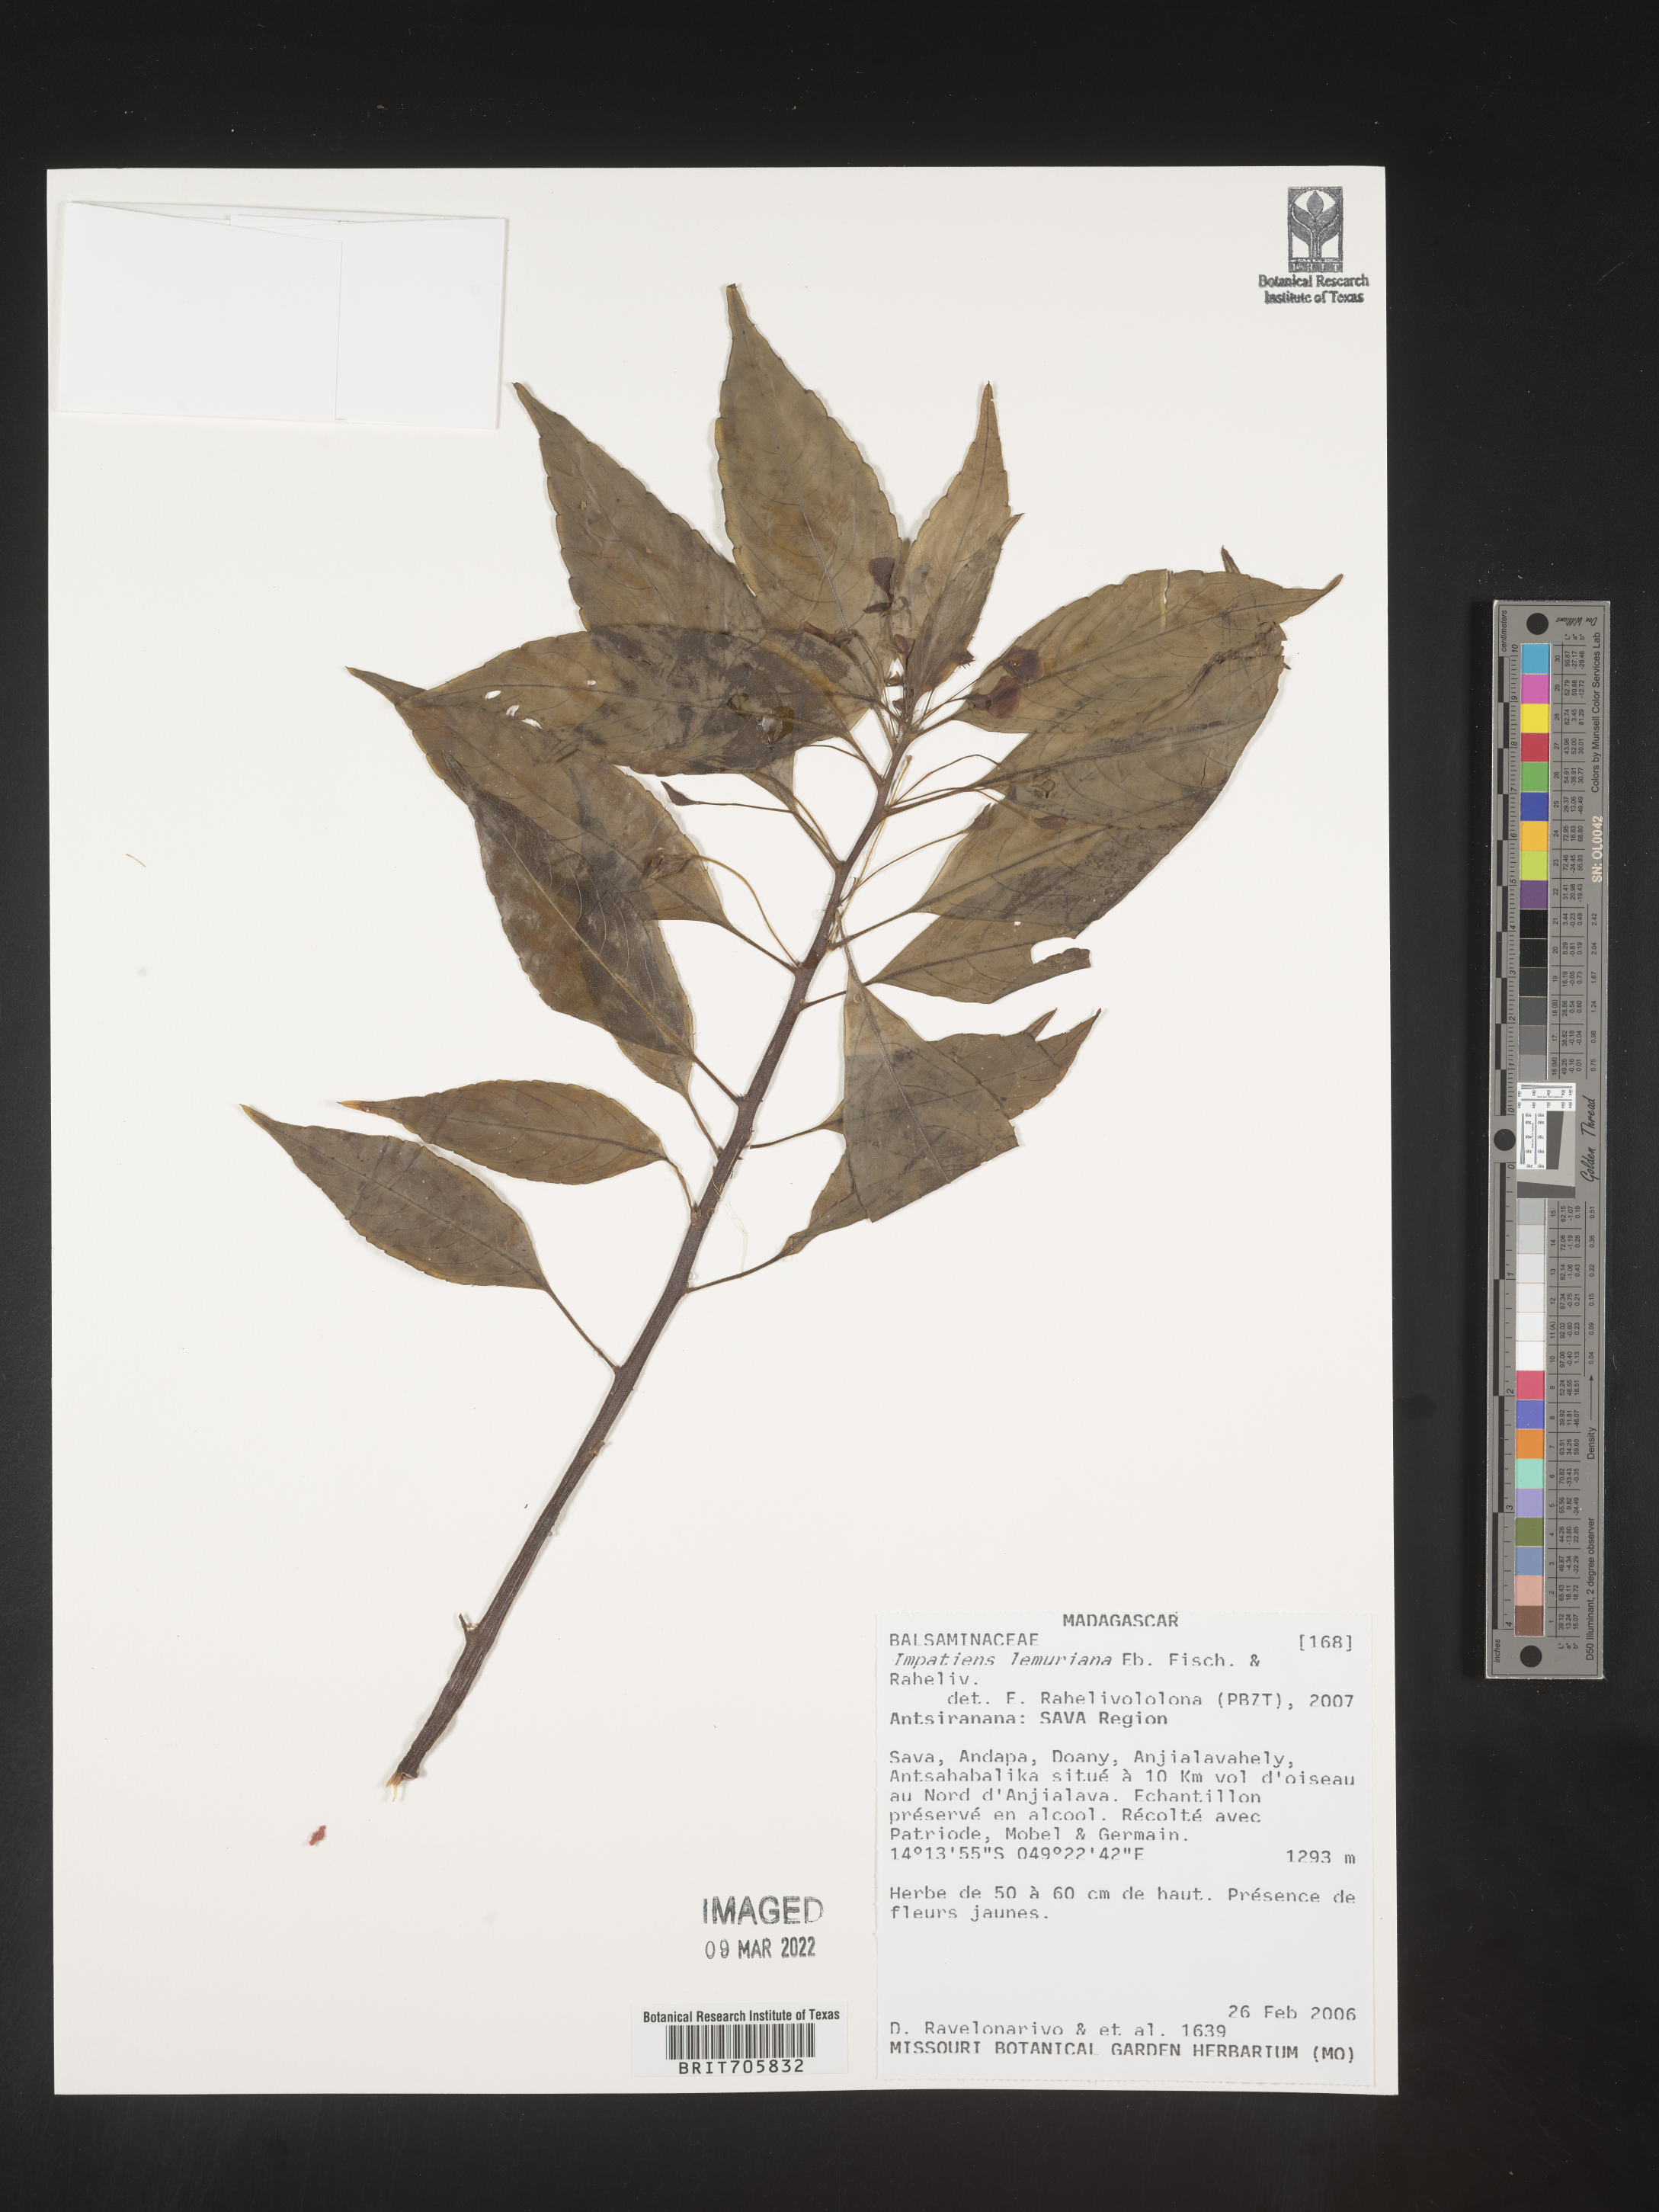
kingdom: Plantae
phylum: Tracheophyta
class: Magnoliopsida
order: Ericales
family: Balsaminaceae
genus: Impatiens
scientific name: Impatiens
